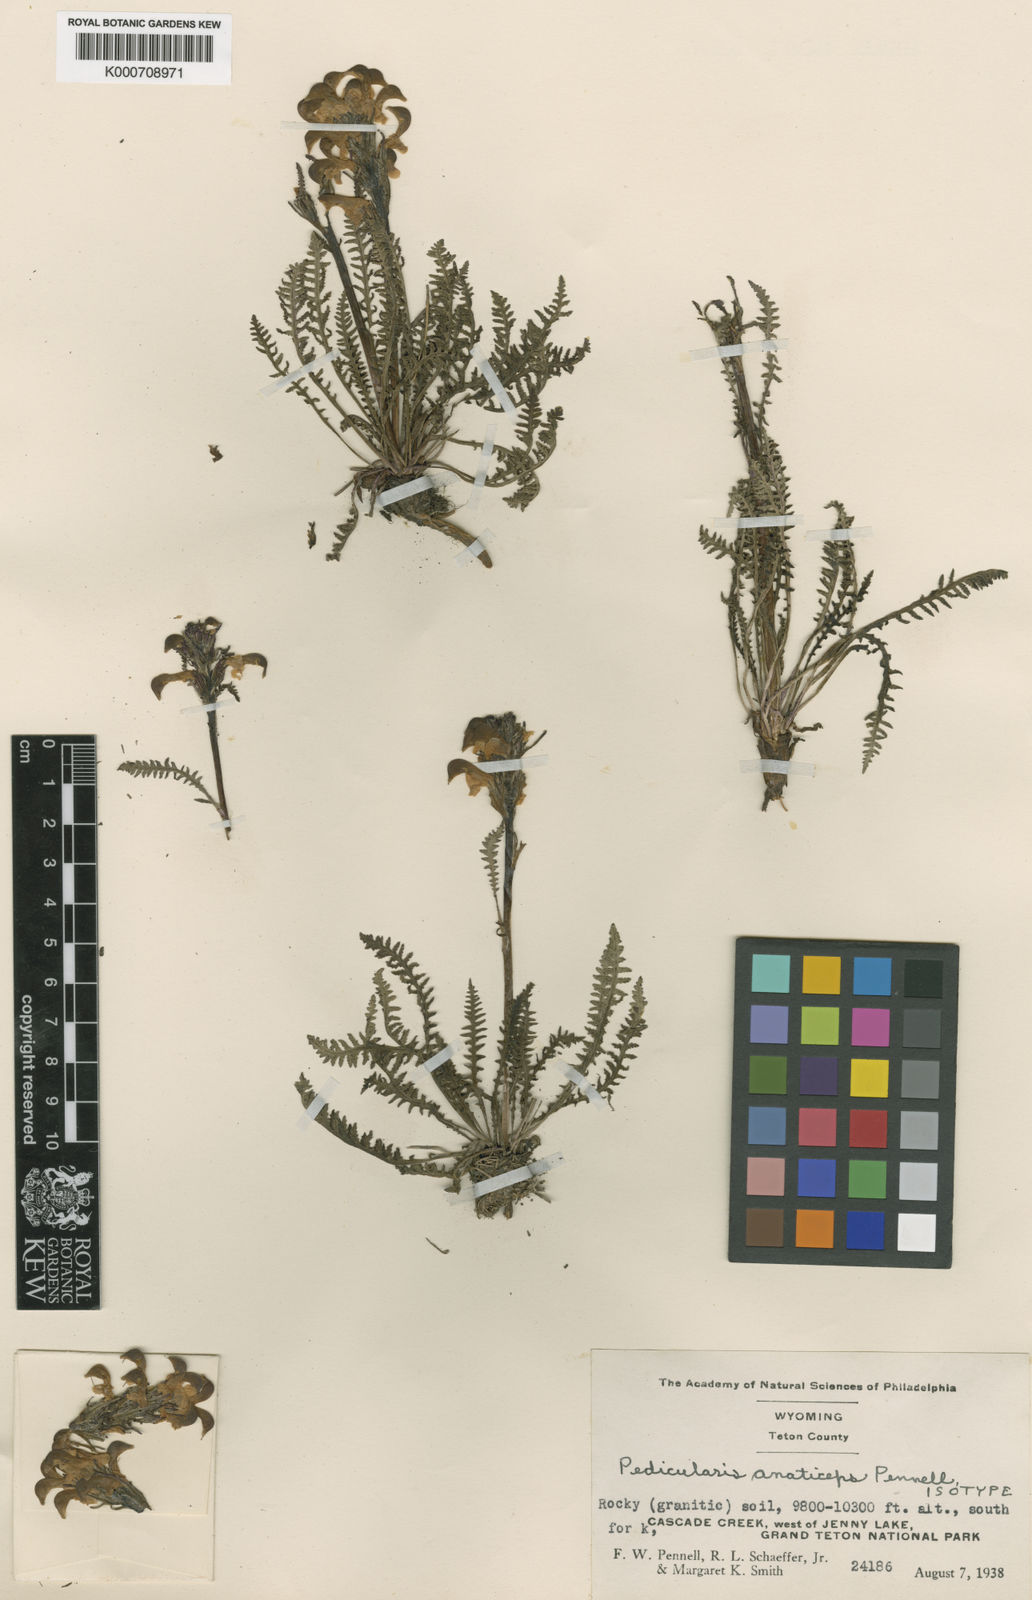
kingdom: Plantae
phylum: Tracheophyta
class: Magnoliopsida
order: Lamiales
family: Orobanchaceae
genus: Pedicularis
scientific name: Pedicularis parryi
